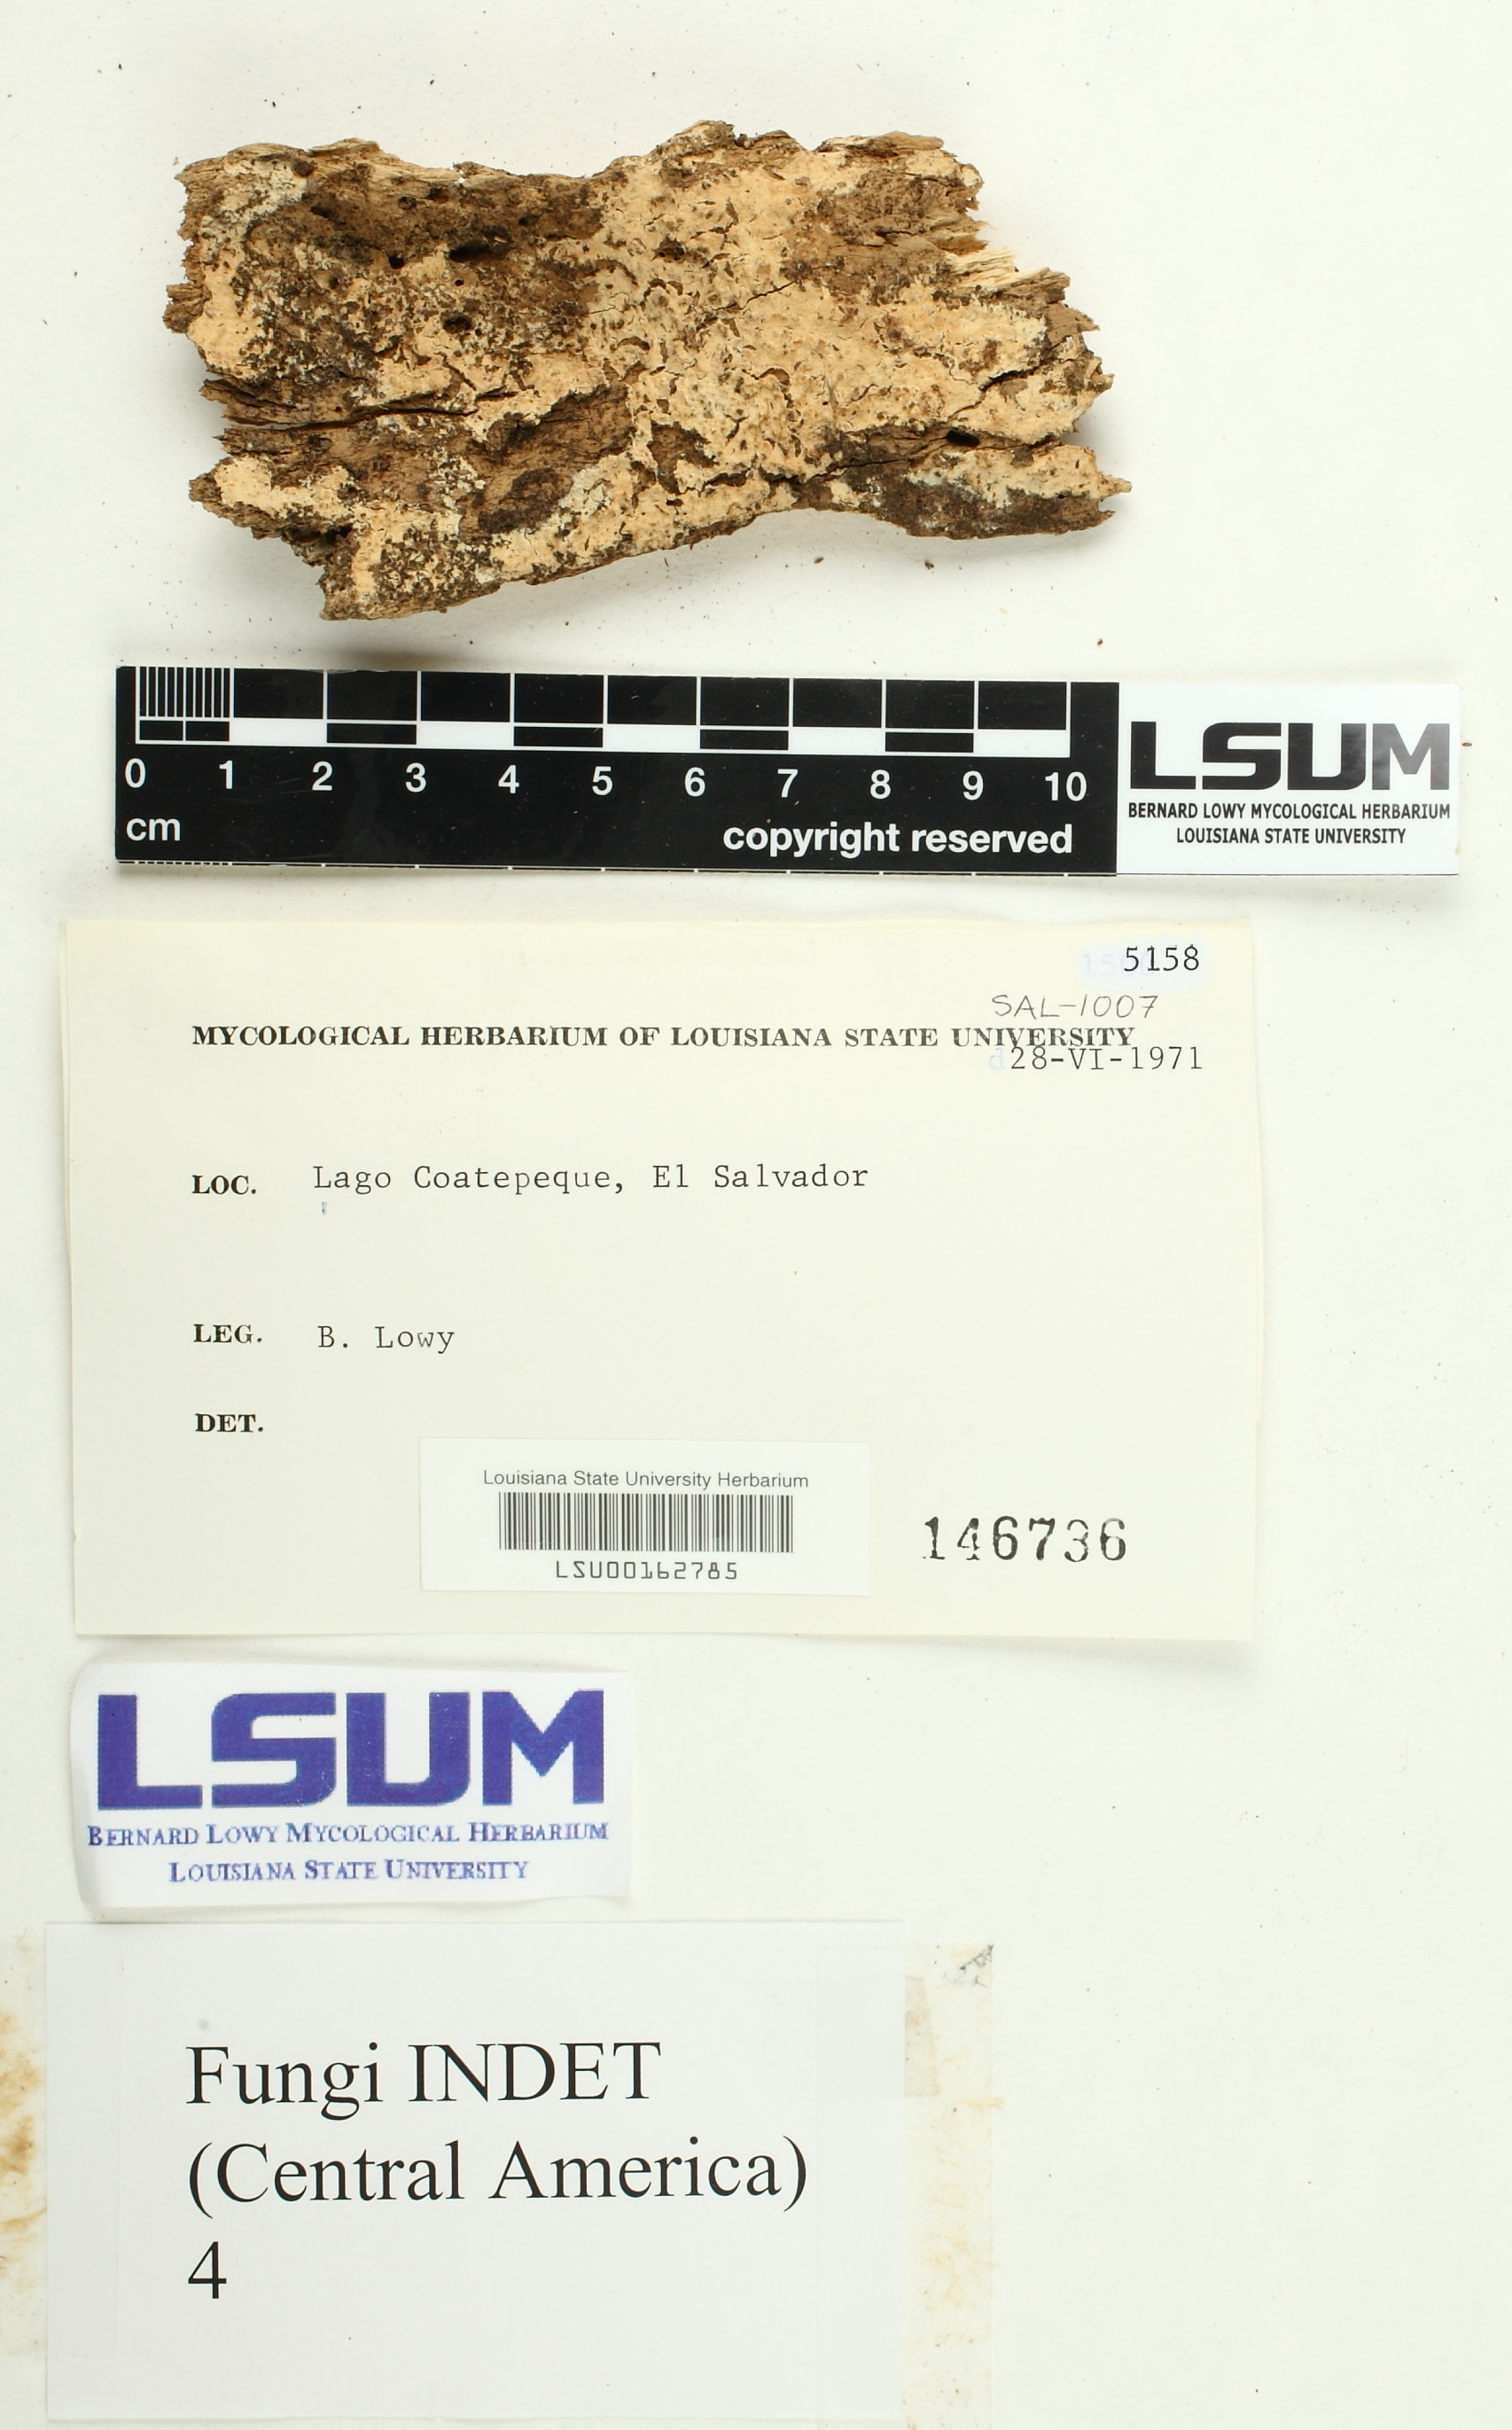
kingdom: Fungi
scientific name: Fungi
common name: Fungi
